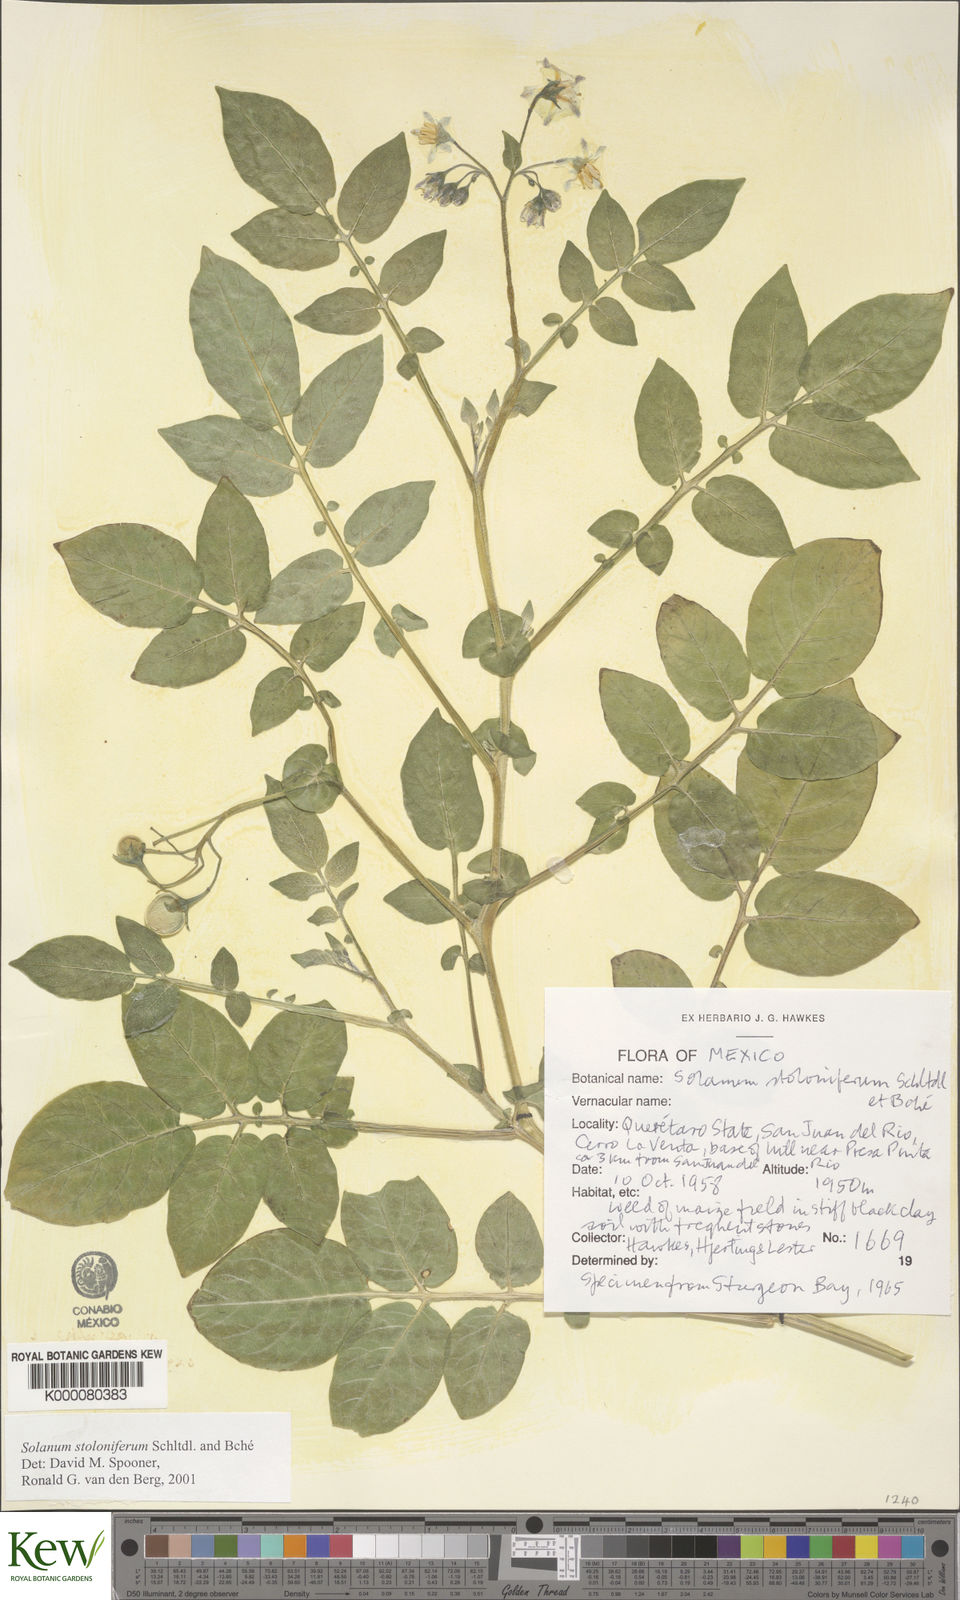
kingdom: Plantae
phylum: Tracheophyta
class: Magnoliopsida
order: Solanales
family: Solanaceae
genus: Solanum
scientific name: Solanum stoloniferum
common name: Fendler's nighshade
